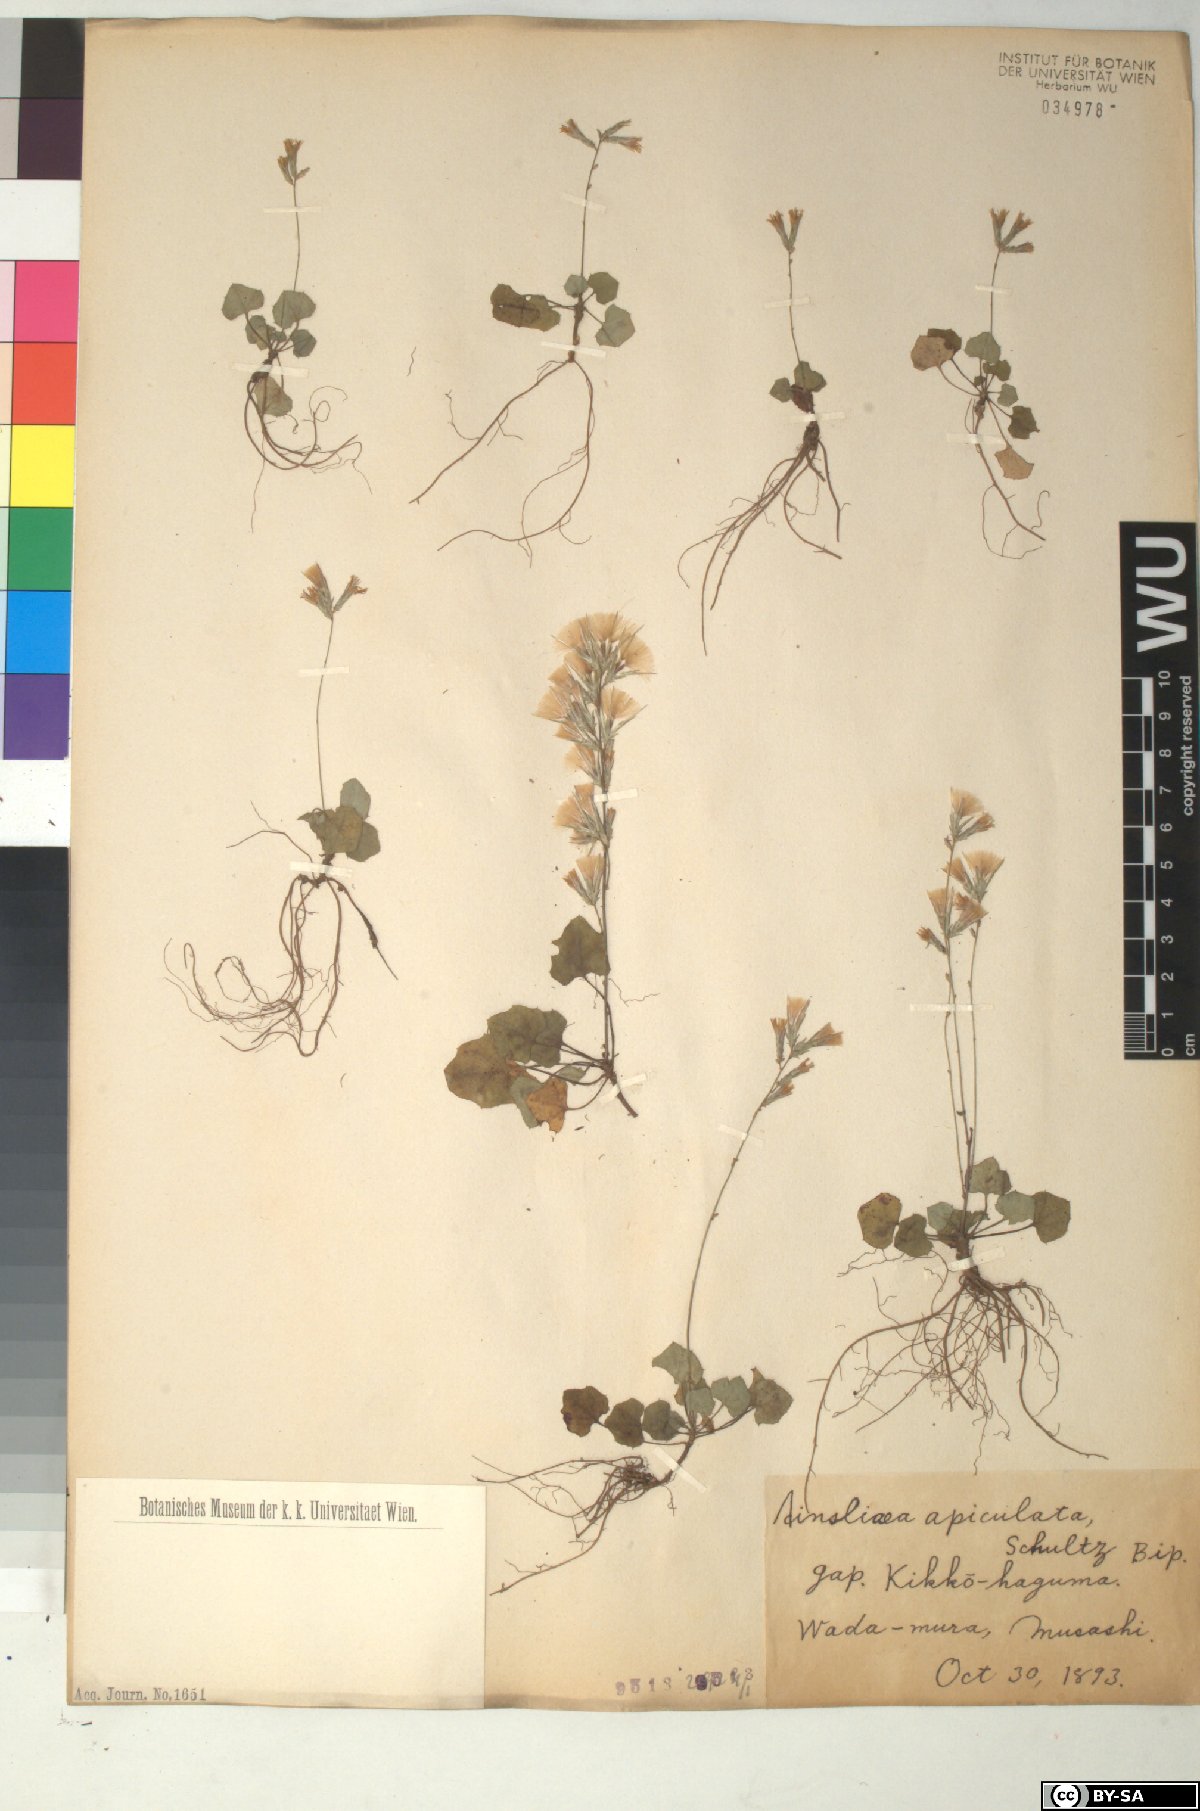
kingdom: Plantae
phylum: Tracheophyta
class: Magnoliopsida
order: Asterales
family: Asteraceae
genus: Ainsliaea
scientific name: Ainsliaea apiculata
